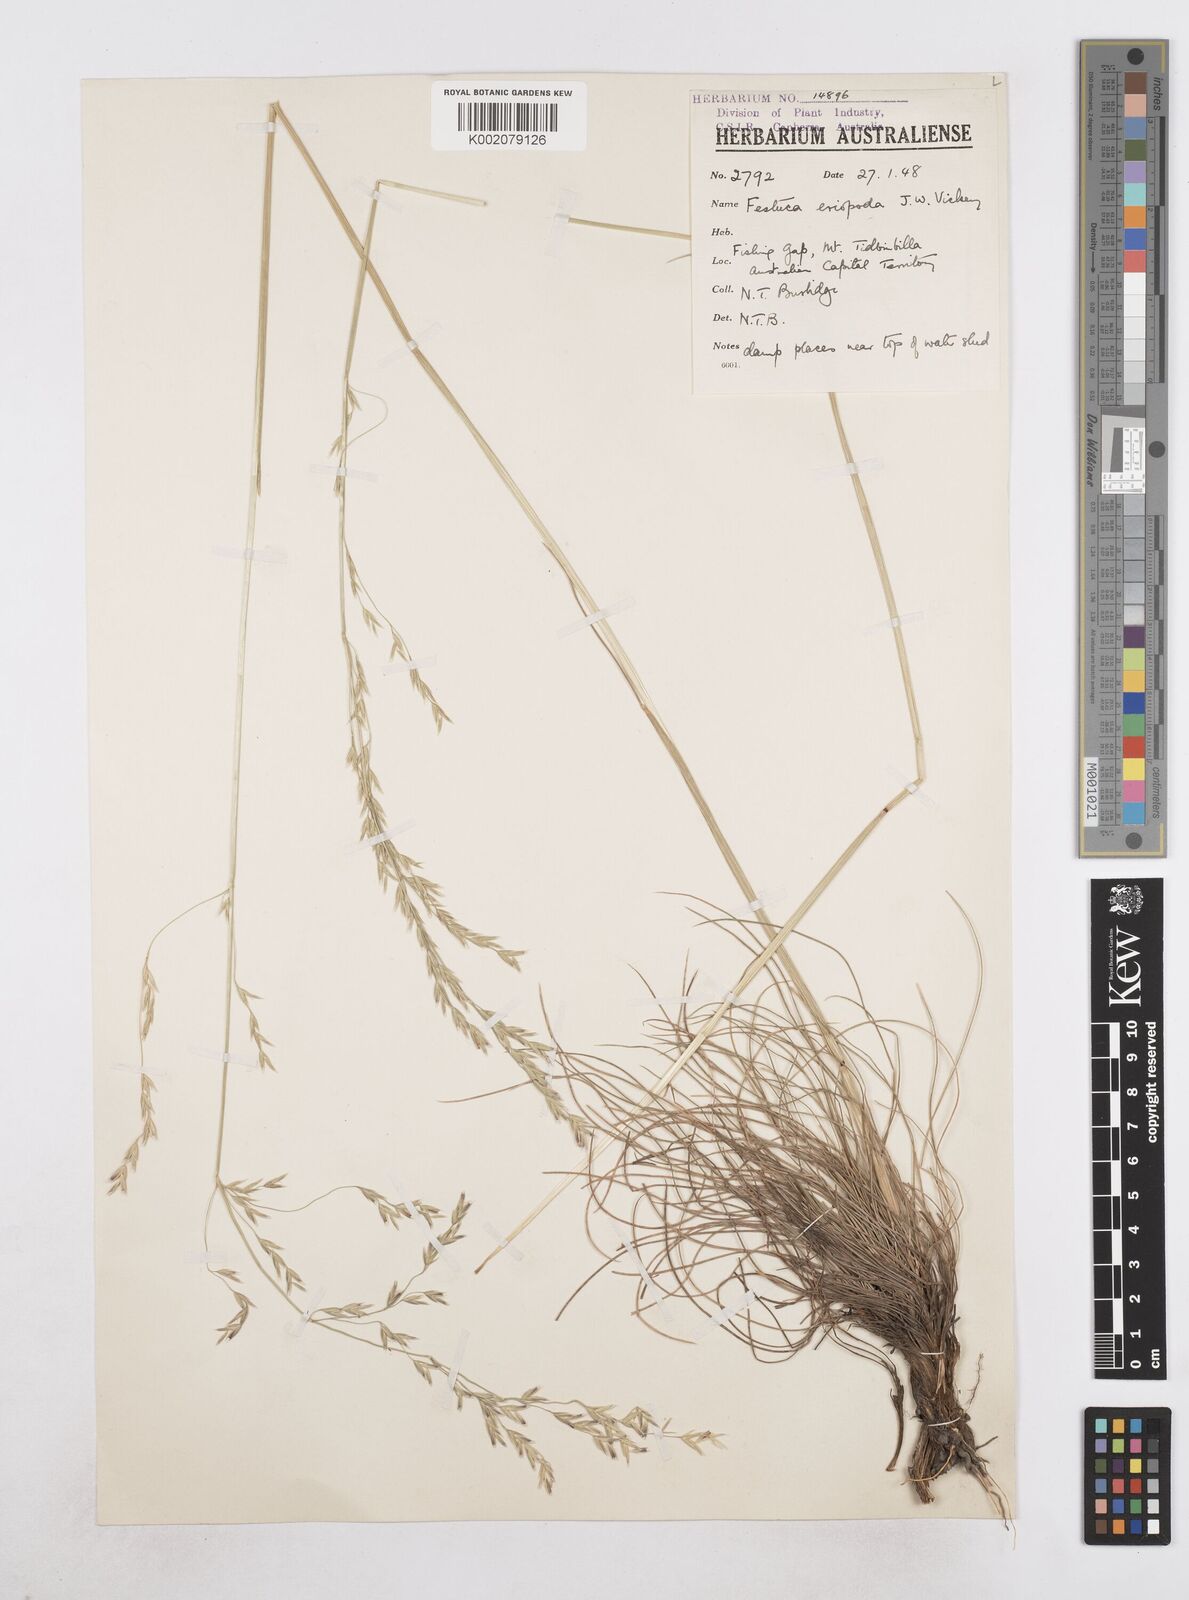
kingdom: Plantae
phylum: Tracheophyta
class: Liliopsida
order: Poales
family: Poaceae
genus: Hookerochloa
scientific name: Hookerochloa eriopoda
